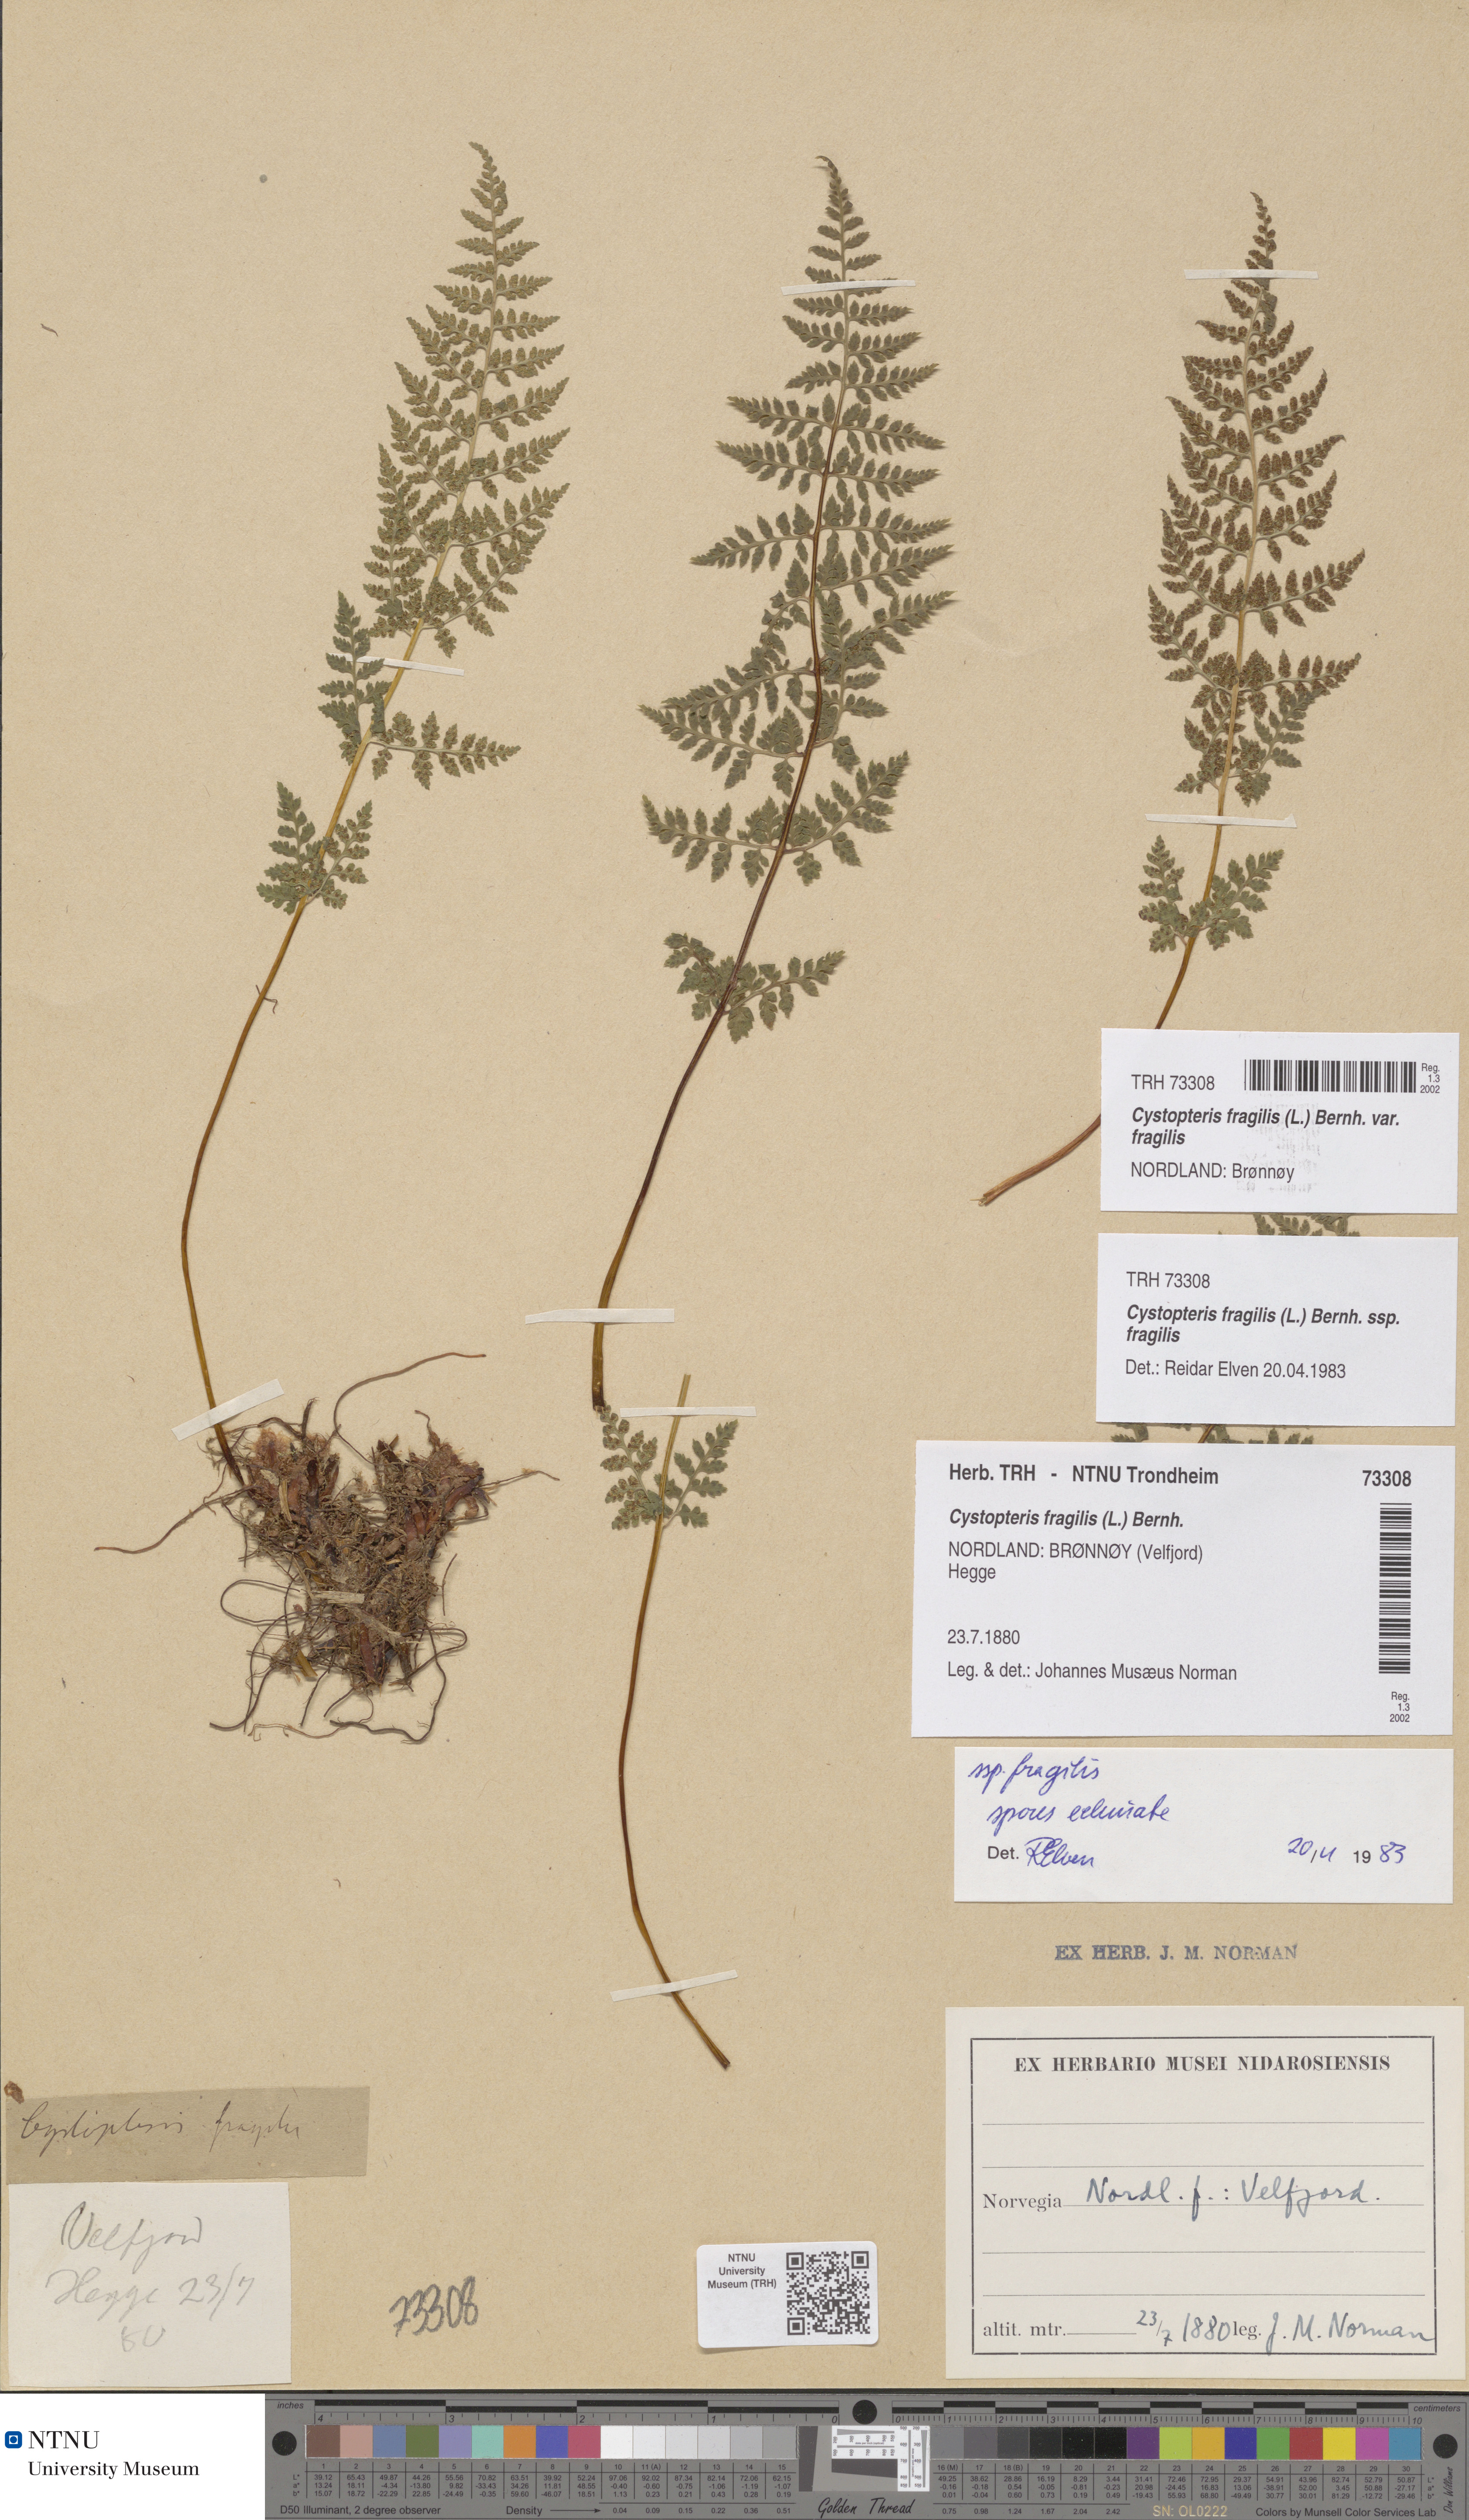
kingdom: Plantae
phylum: Tracheophyta
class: Polypodiopsida
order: Polypodiales
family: Cystopteridaceae
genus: Cystopteris
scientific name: Cystopteris fragilis
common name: Brittle bladder fern
